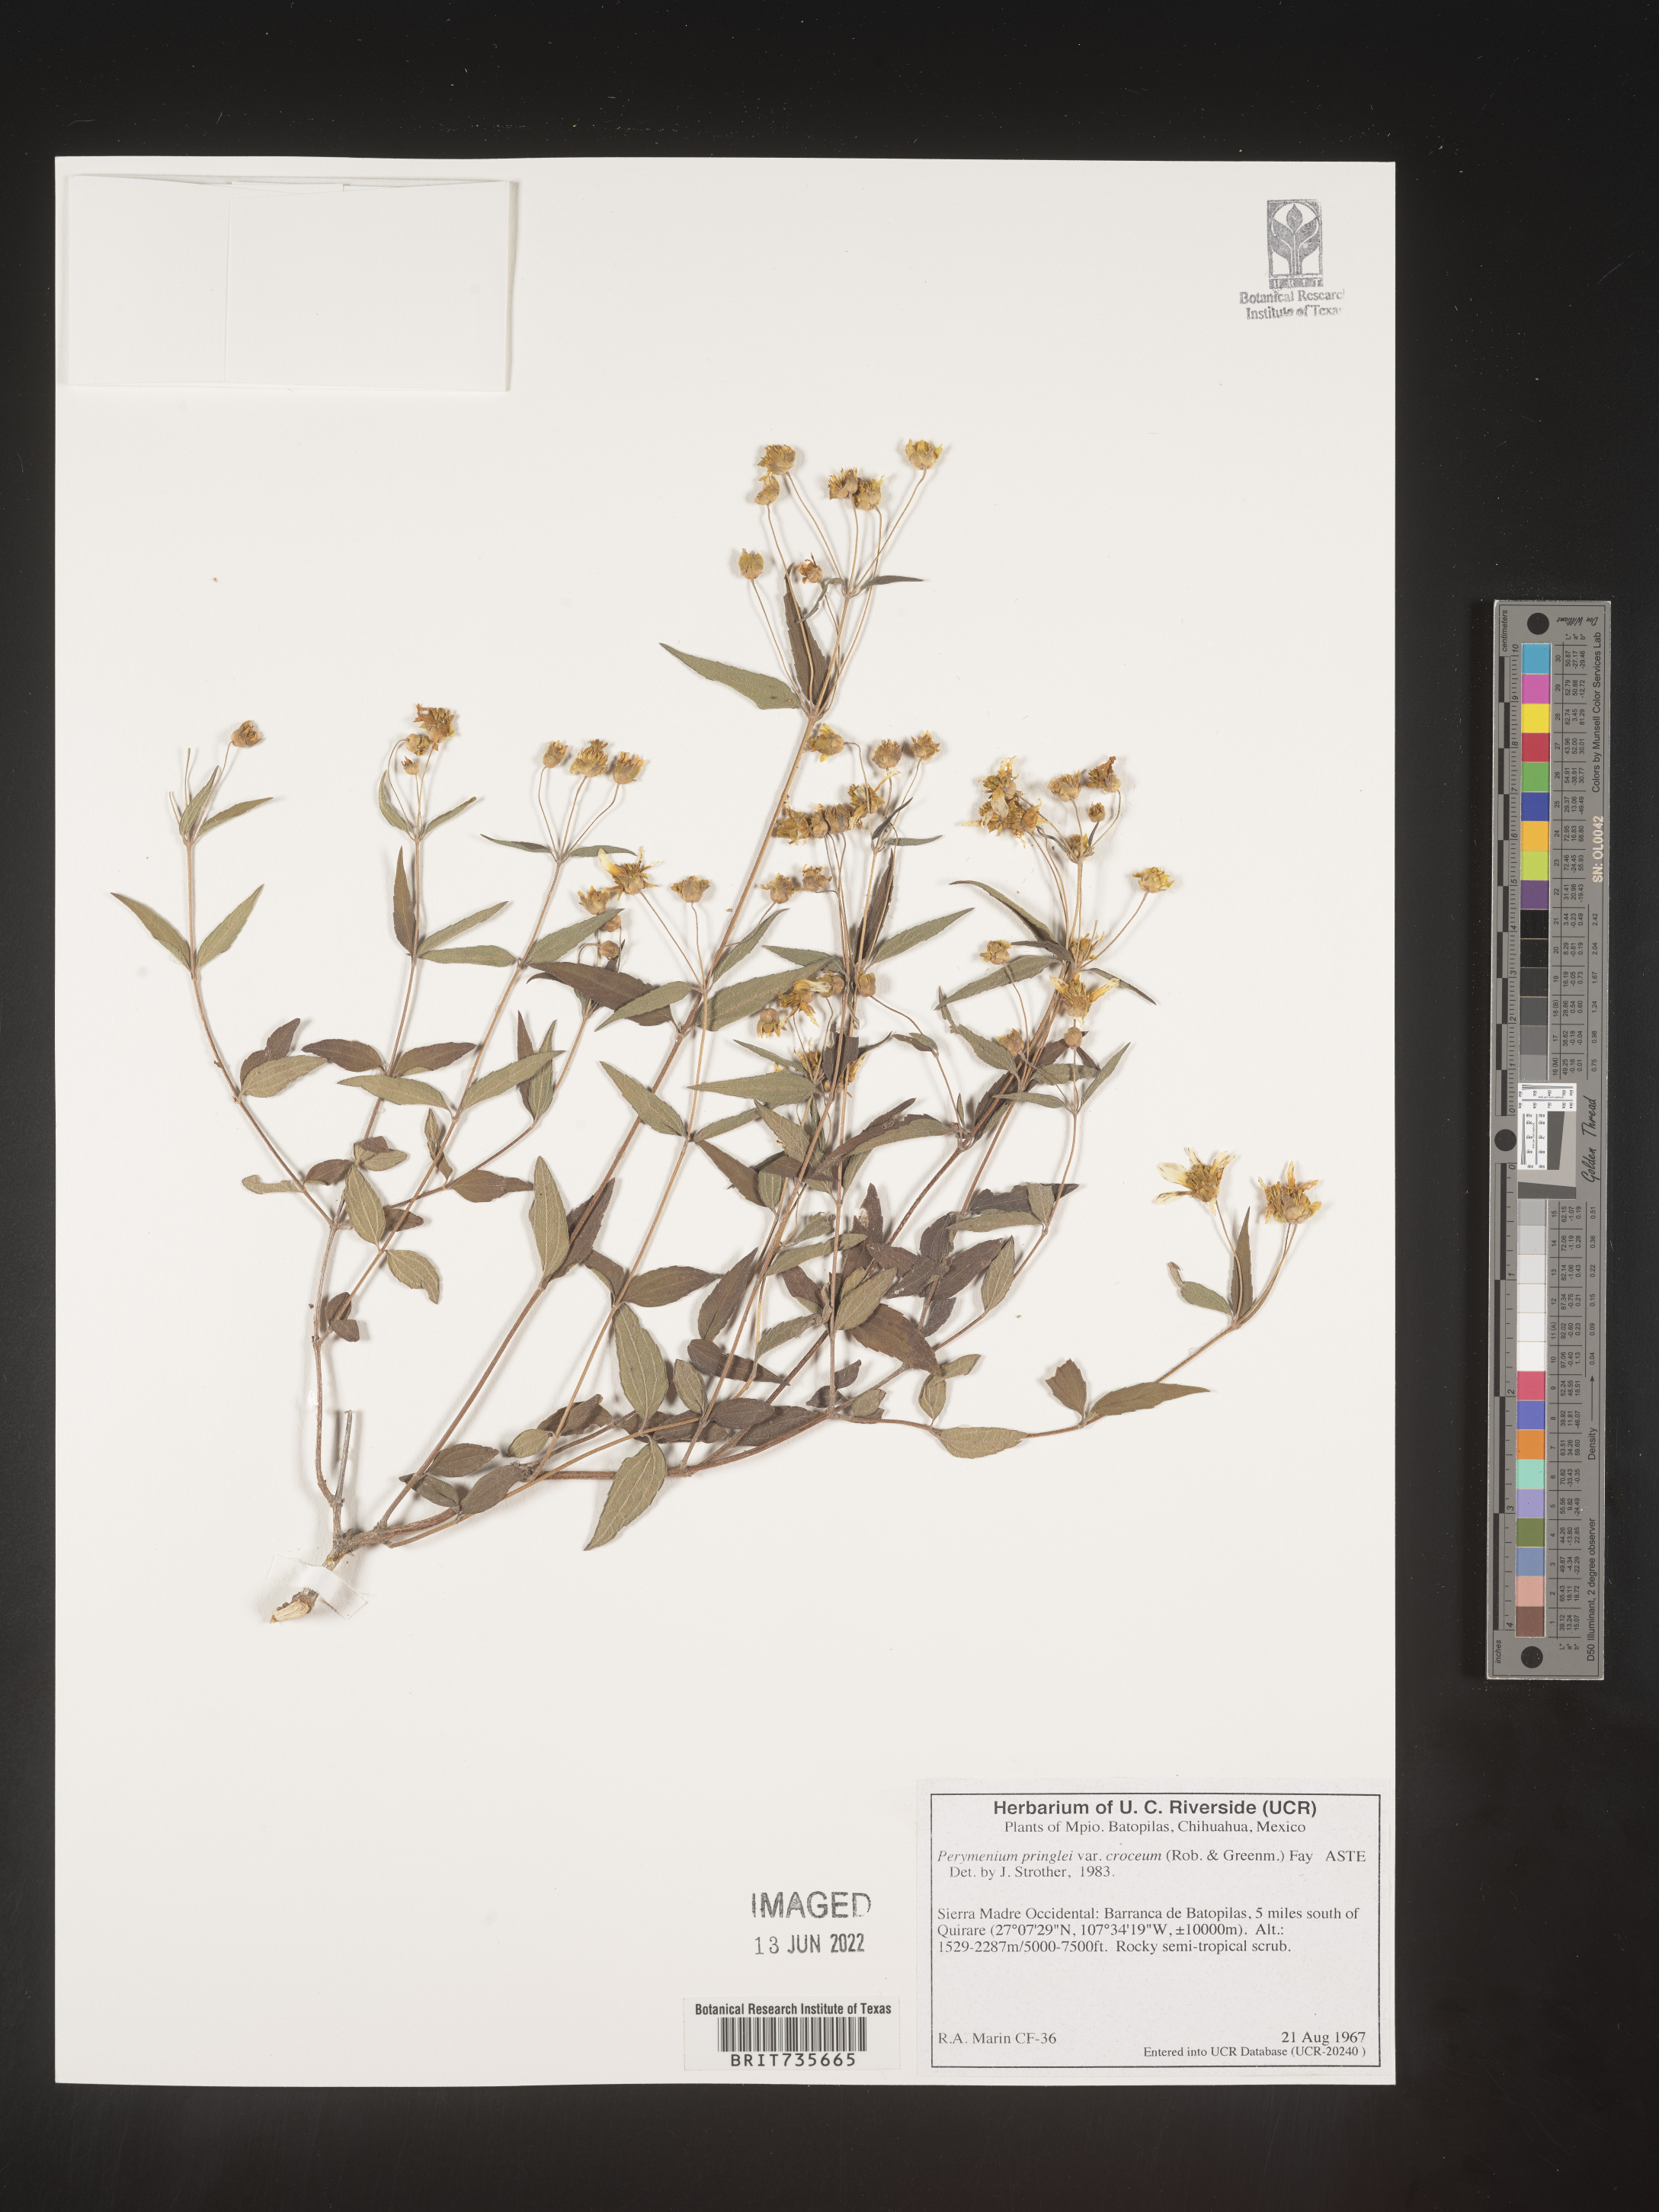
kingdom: Plantae
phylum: Tracheophyta
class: Magnoliopsida
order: Asterales
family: Asteraceae
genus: Perymenium
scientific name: Perymenium
